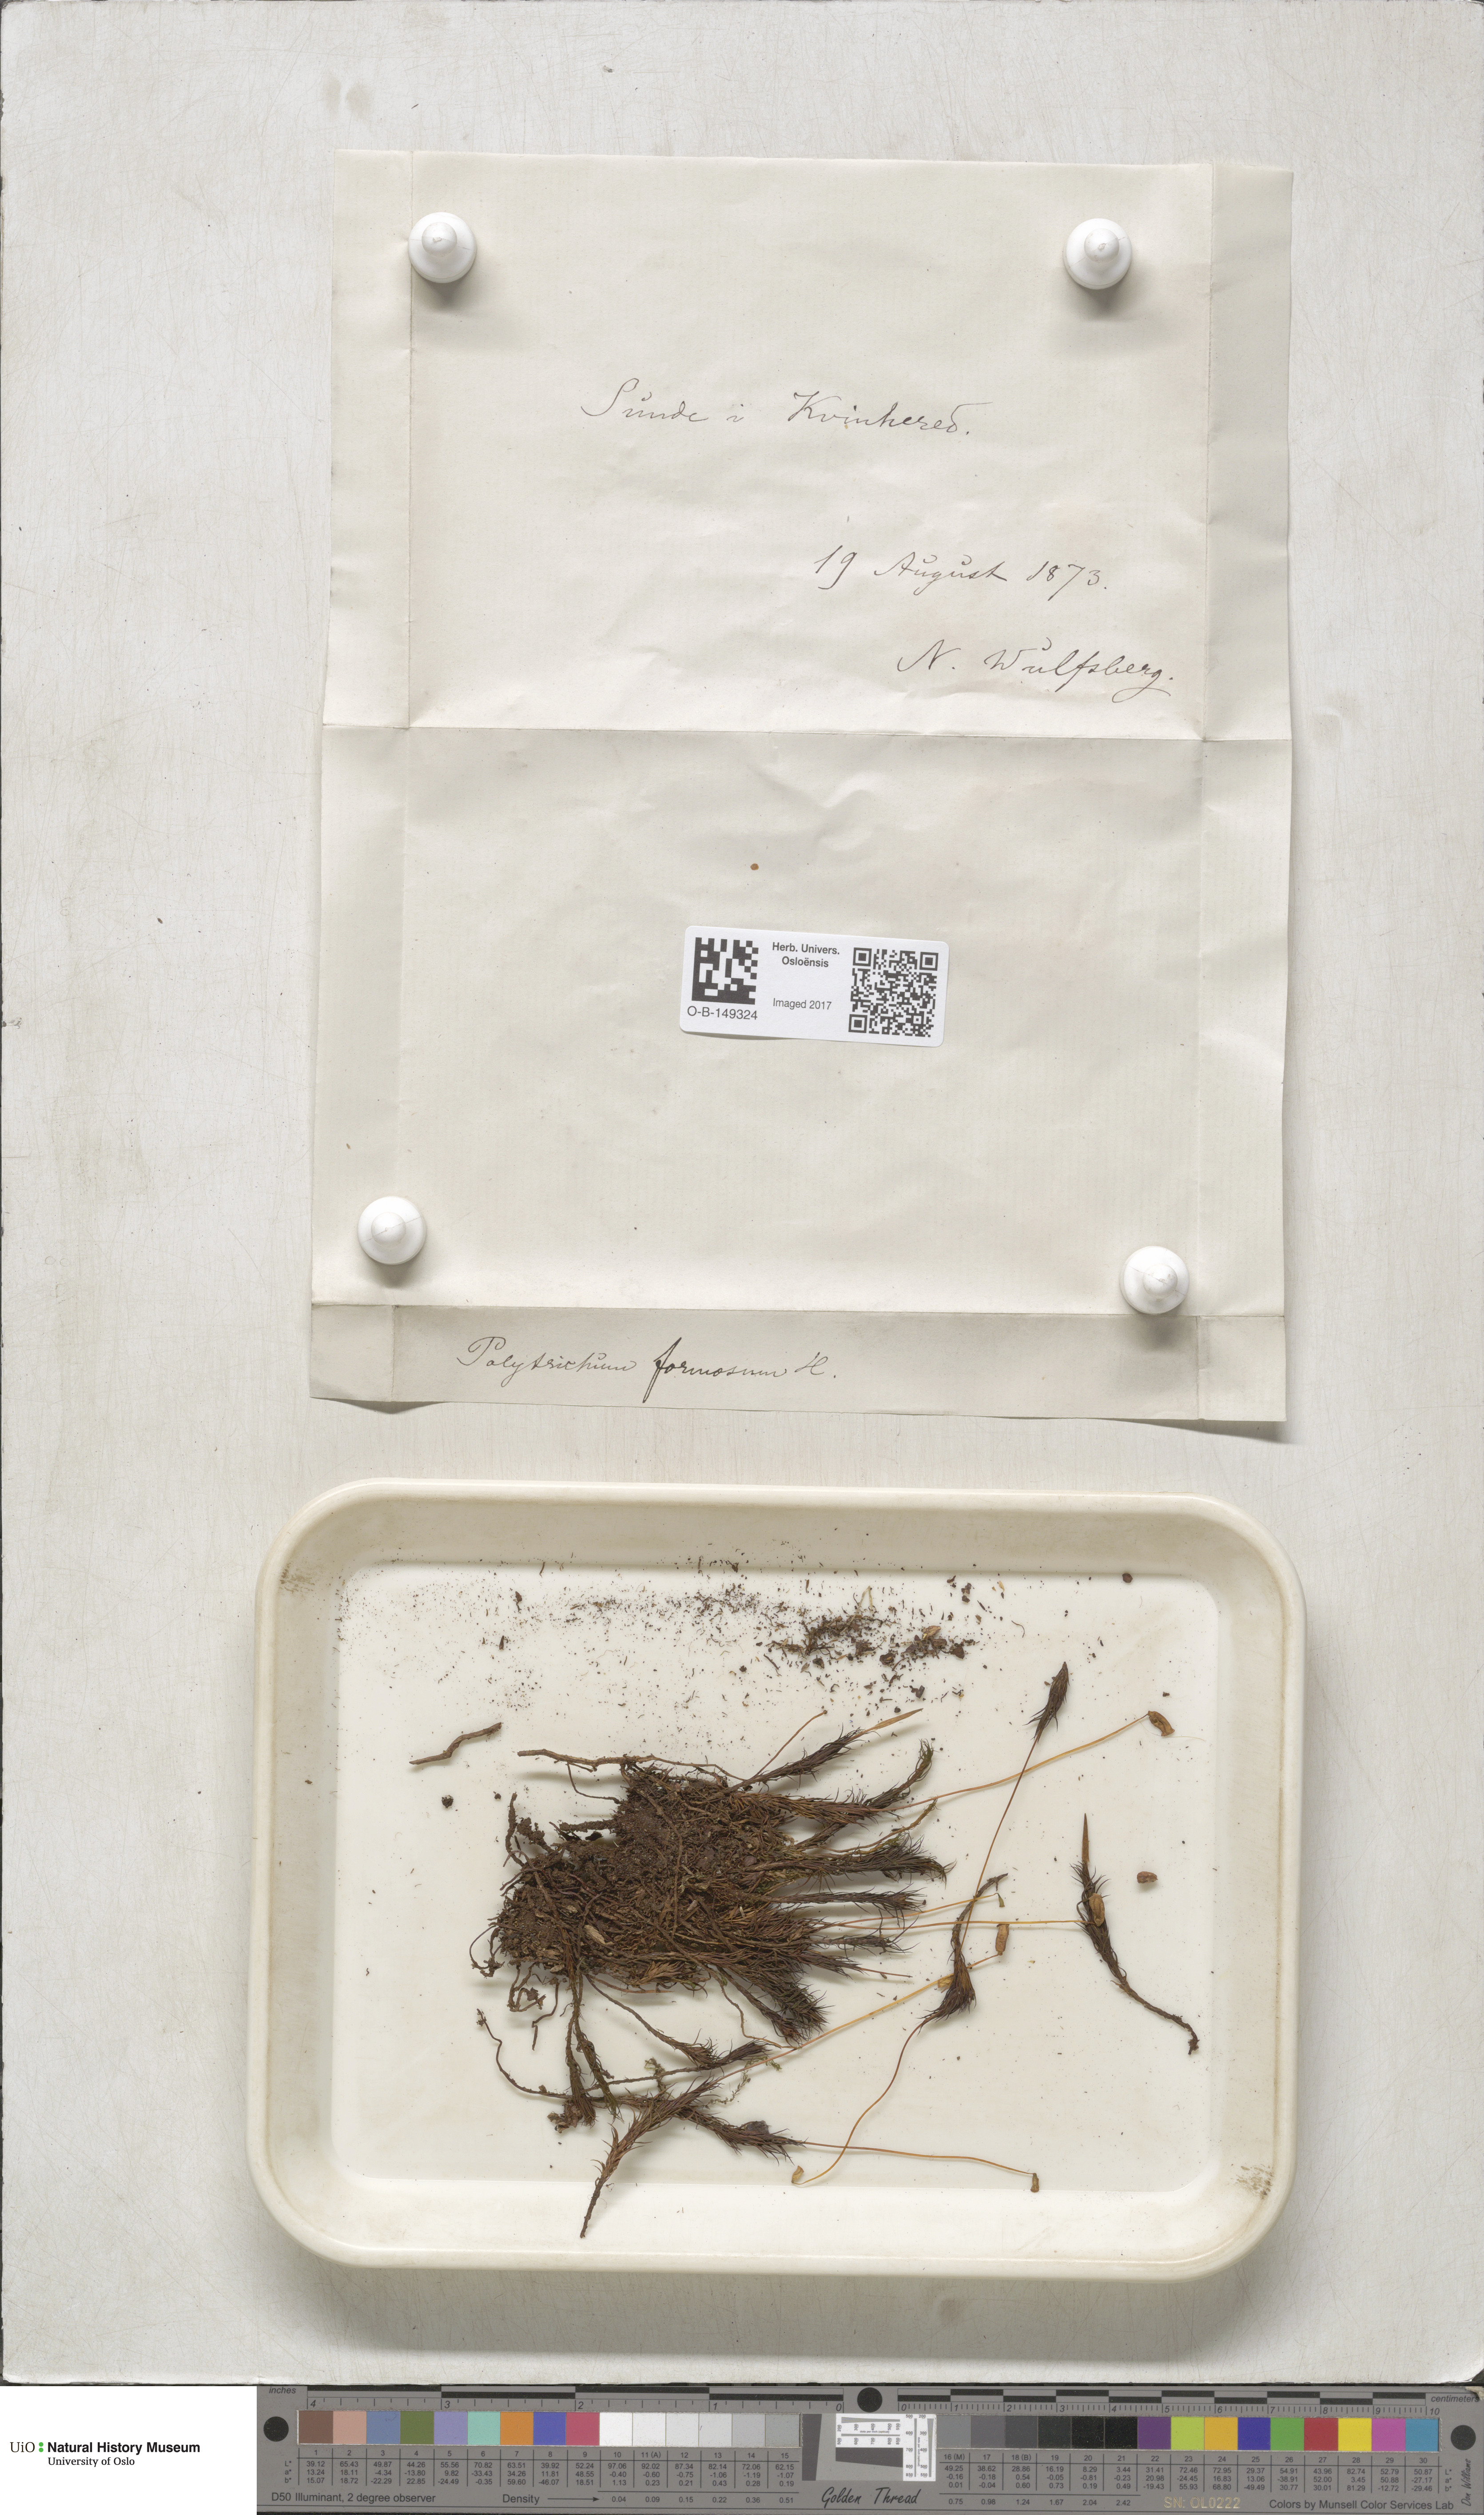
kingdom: Plantae
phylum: Bryophyta
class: Polytrichopsida
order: Polytrichales
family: Polytrichaceae
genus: Polytrichum
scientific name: Polytrichum formosum
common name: Bank haircap moss
